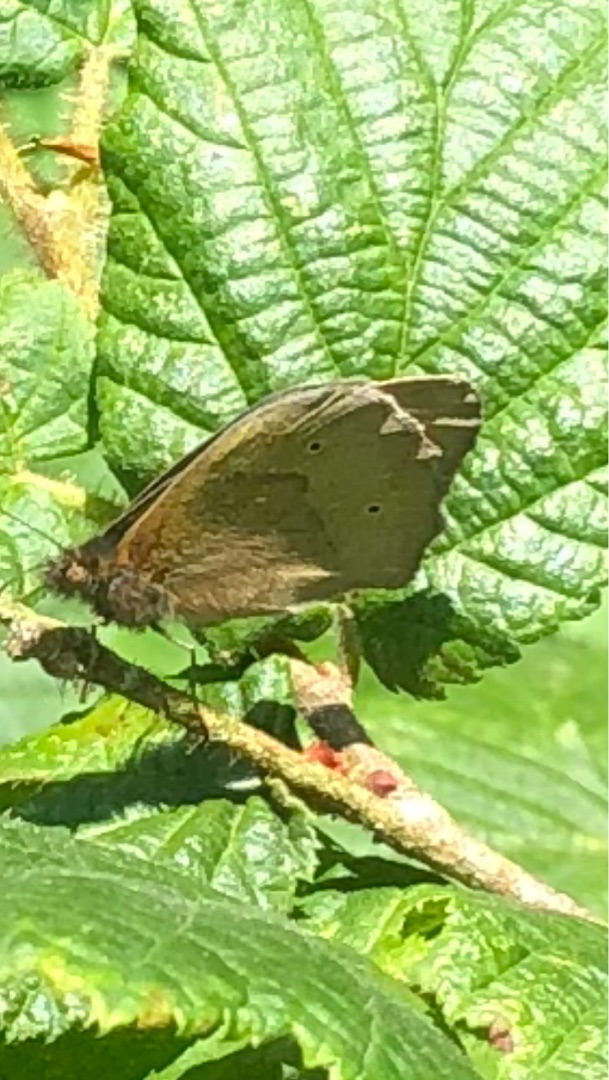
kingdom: Animalia
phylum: Arthropoda
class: Insecta
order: Lepidoptera
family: Nymphalidae
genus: Maniola
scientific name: Maniola jurtina
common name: Græsrandøje
